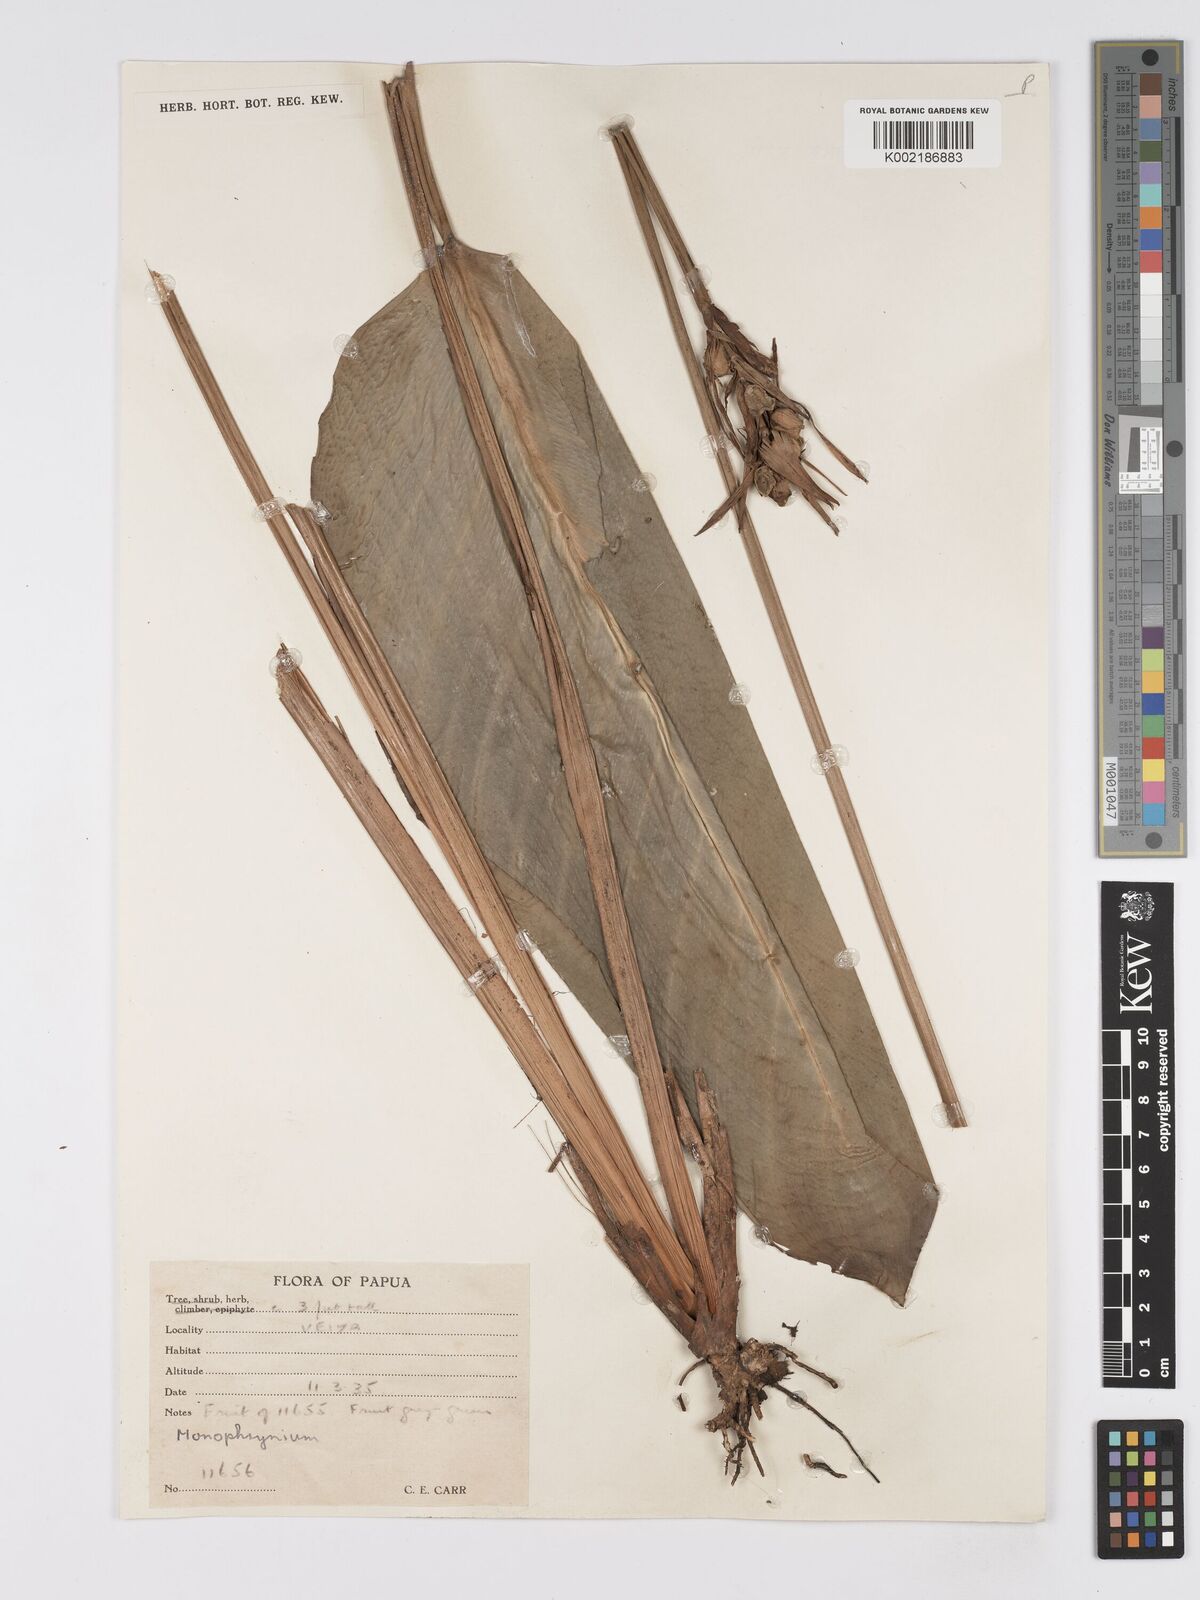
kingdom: Plantae
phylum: Tracheophyta
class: Liliopsida
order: Zingiberales
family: Marantaceae
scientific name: Marantaceae
